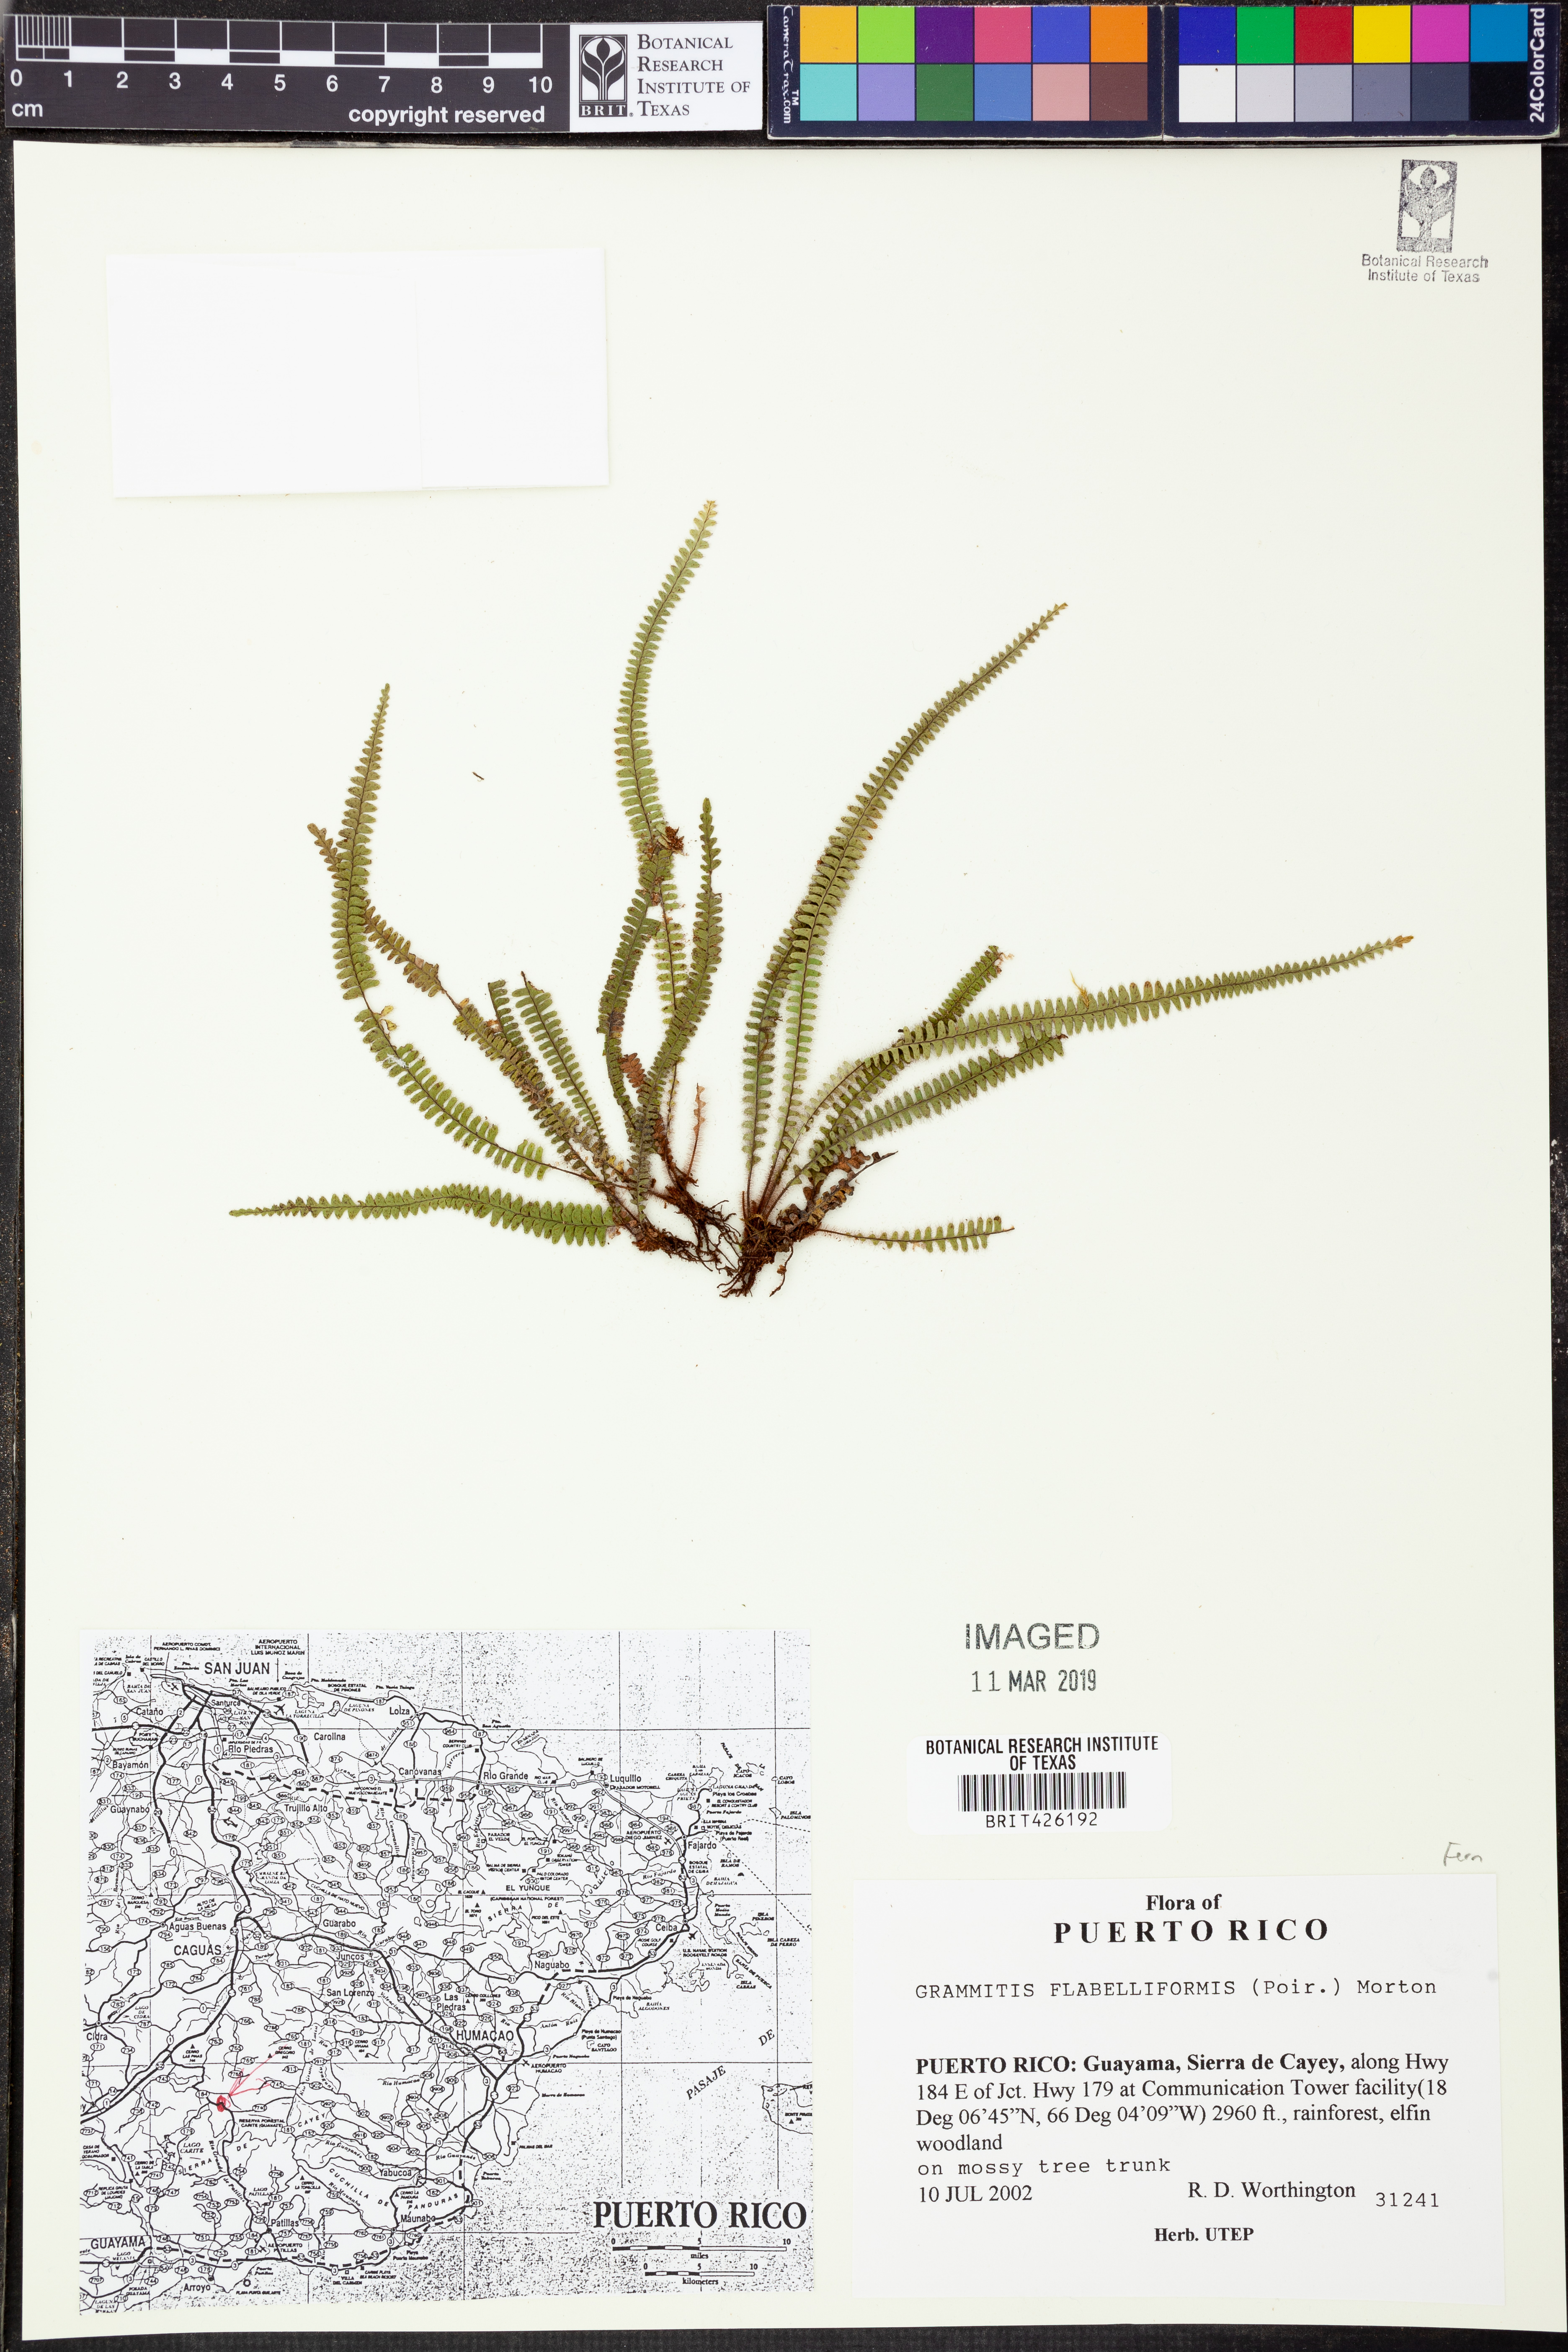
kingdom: Plantae
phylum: Tracheophyta
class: Polypodiopsida
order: Polypodiales
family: Polypodiaceae
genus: Melpomene
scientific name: Melpomene flabelliformis
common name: Fanleaf dwarf polypody
